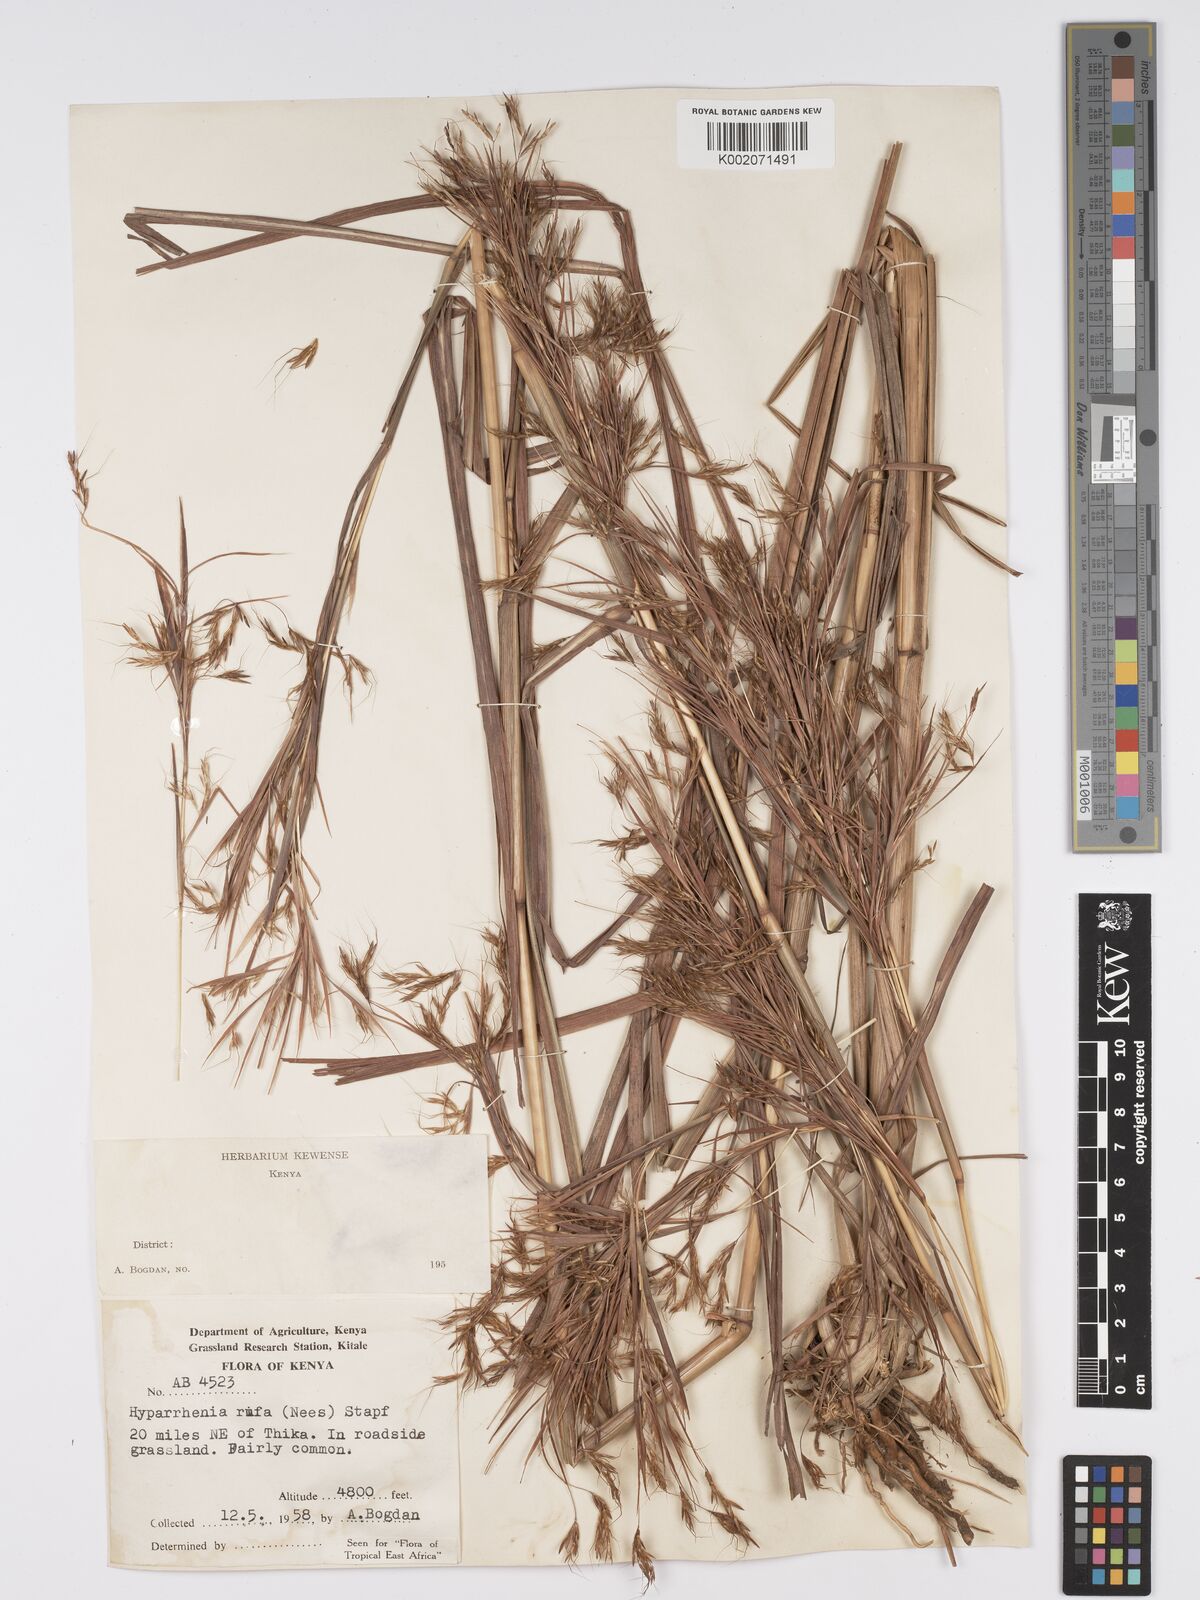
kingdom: Plantae
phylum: Tracheophyta
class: Liliopsida
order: Poales
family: Poaceae
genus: Hyparrhenia
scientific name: Hyparrhenia rufa
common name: Jaraguagrass
